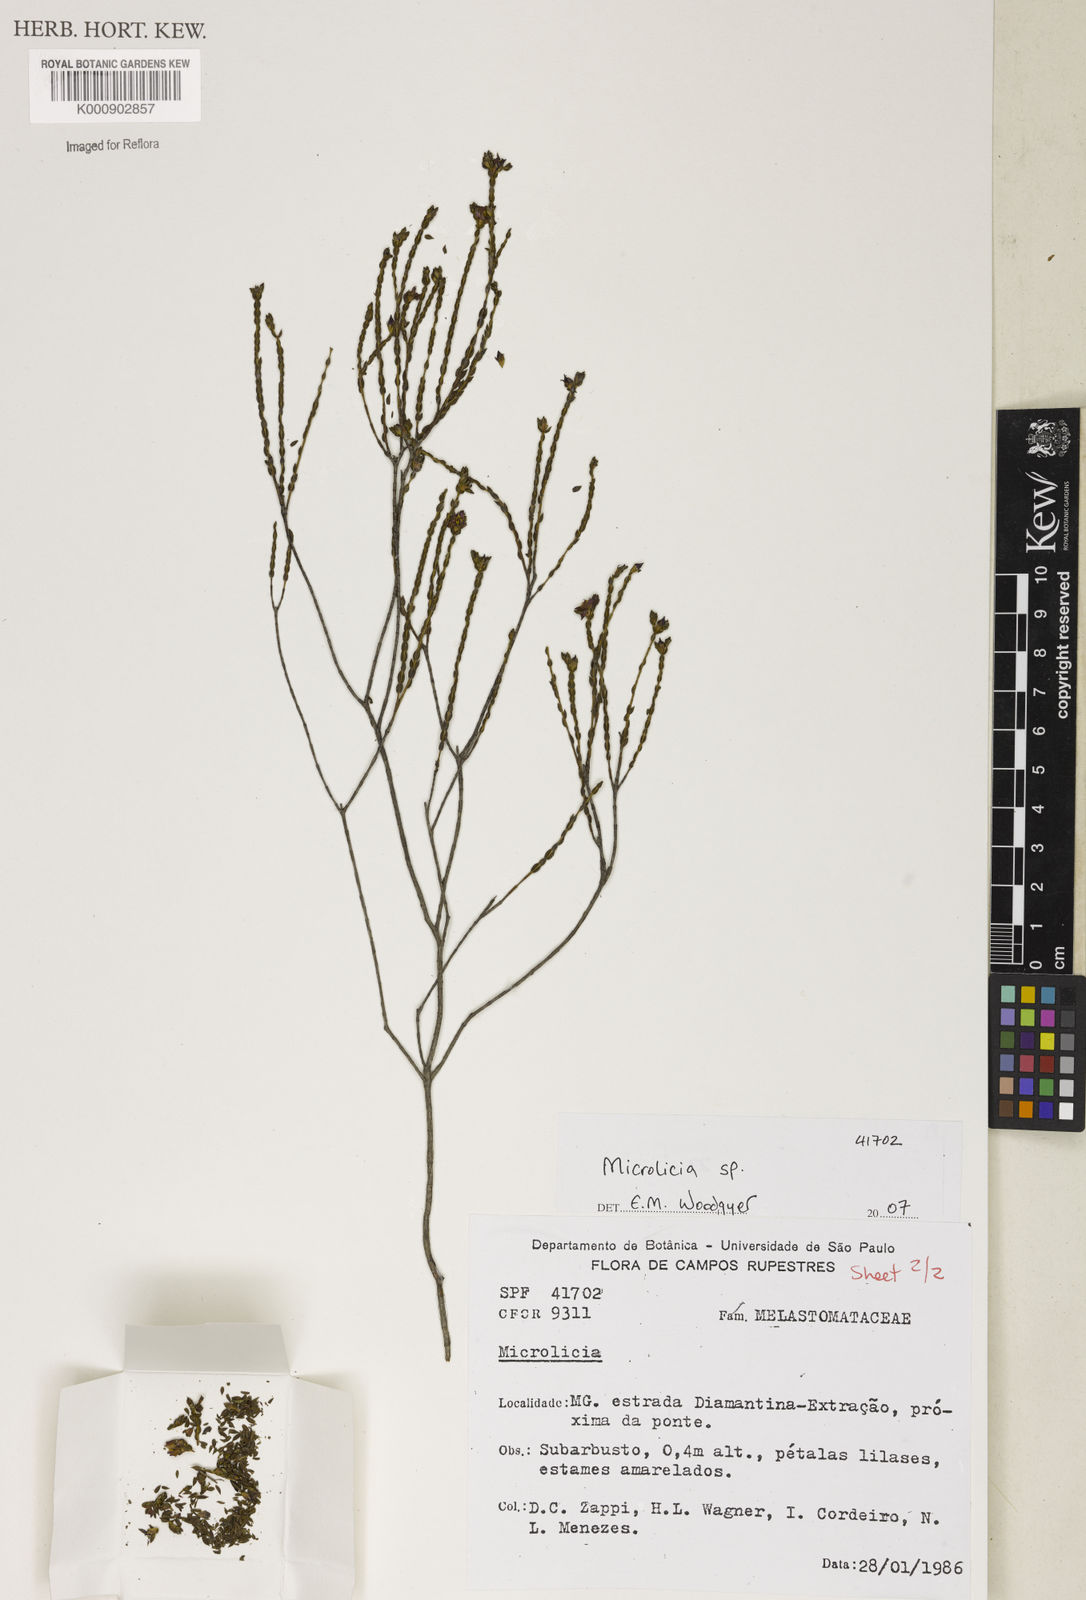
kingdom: Plantae
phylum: Tracheophyta
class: Magnoliopsida
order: Myrtales
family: Melastomataceae
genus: Microlicia
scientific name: Microlicia
